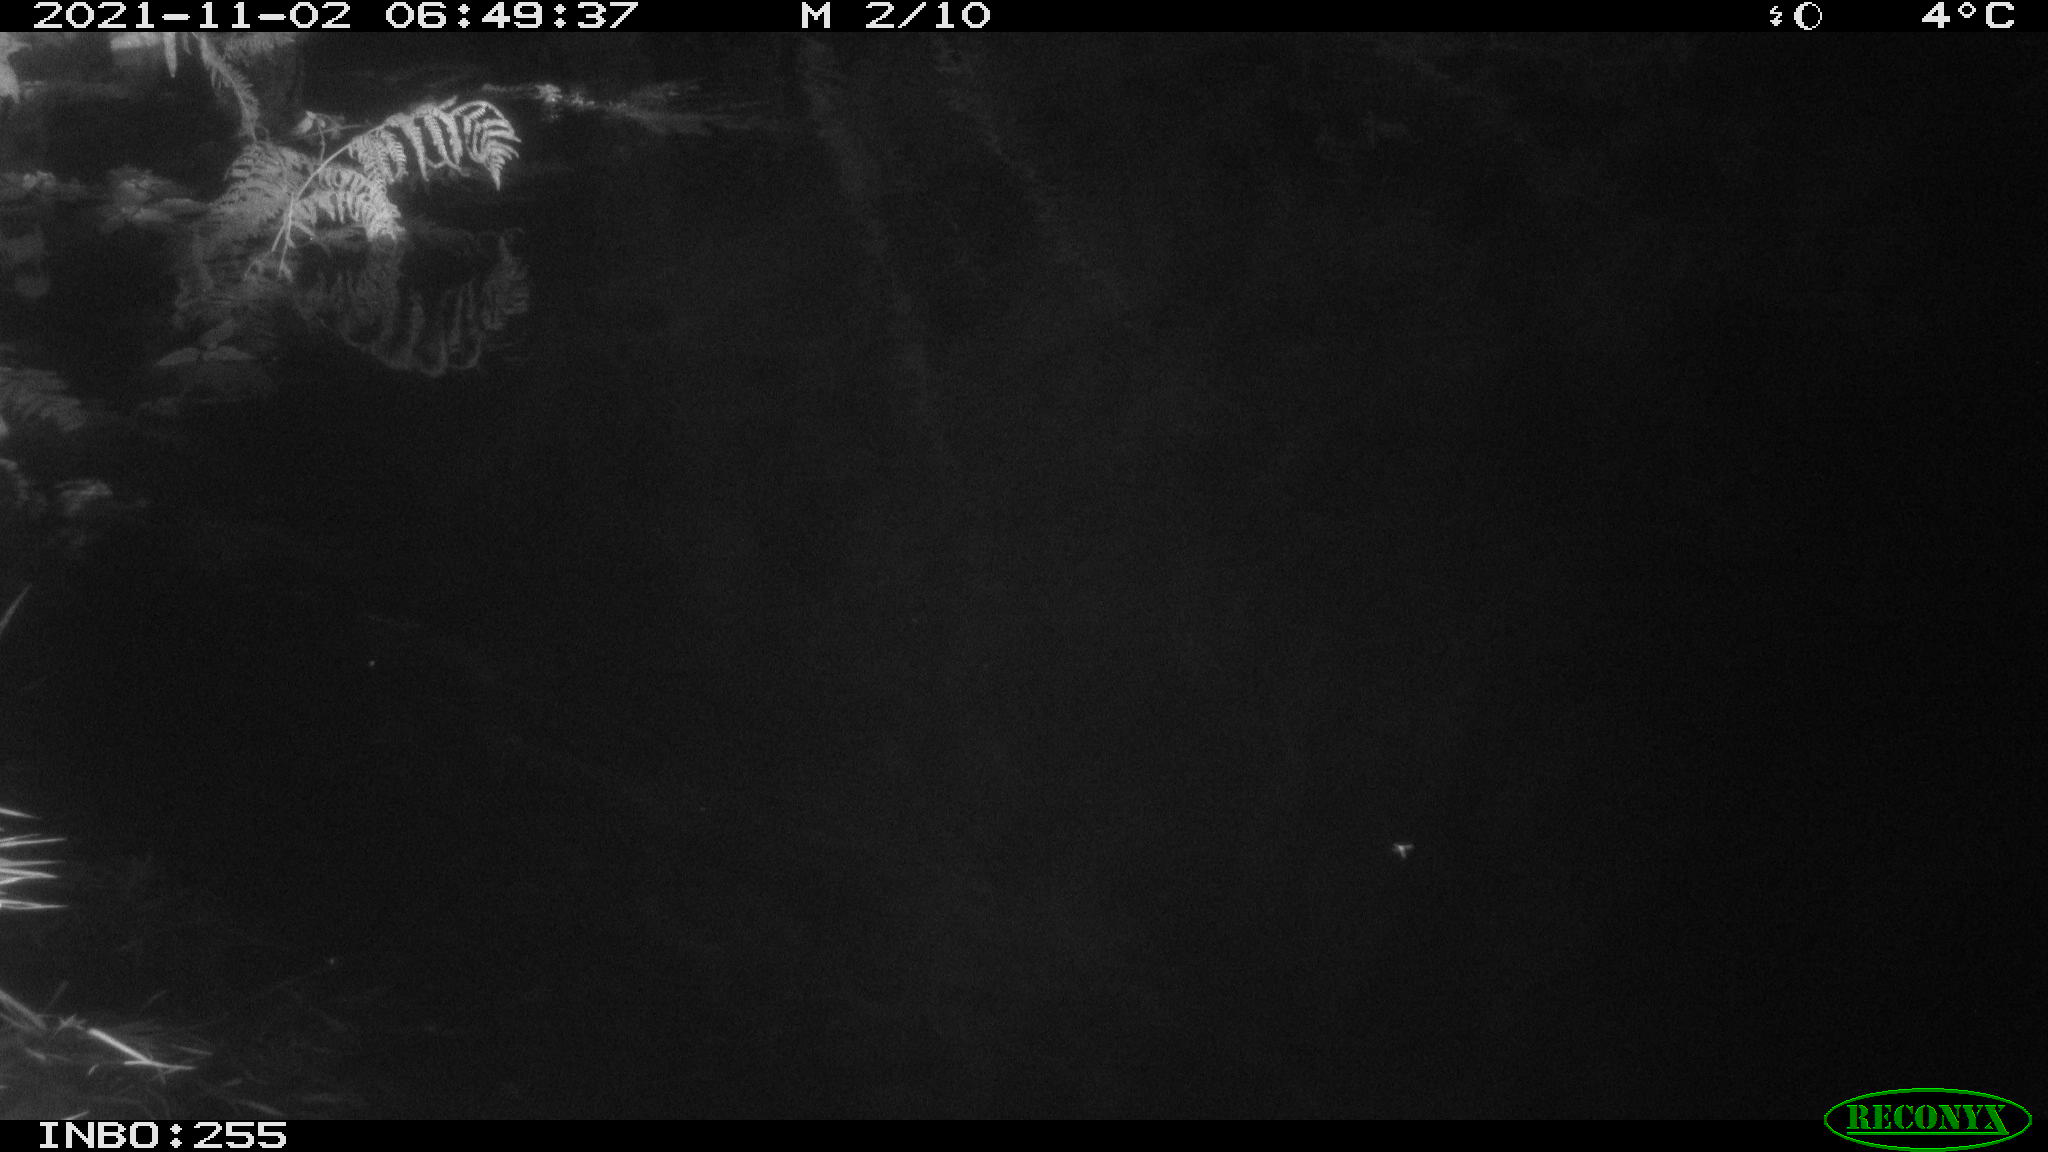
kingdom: Animalia
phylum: Chordata
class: Mammalia
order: Rodentia
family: Muridae
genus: Rattus
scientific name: Rattus norvegicus
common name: Brown rat
